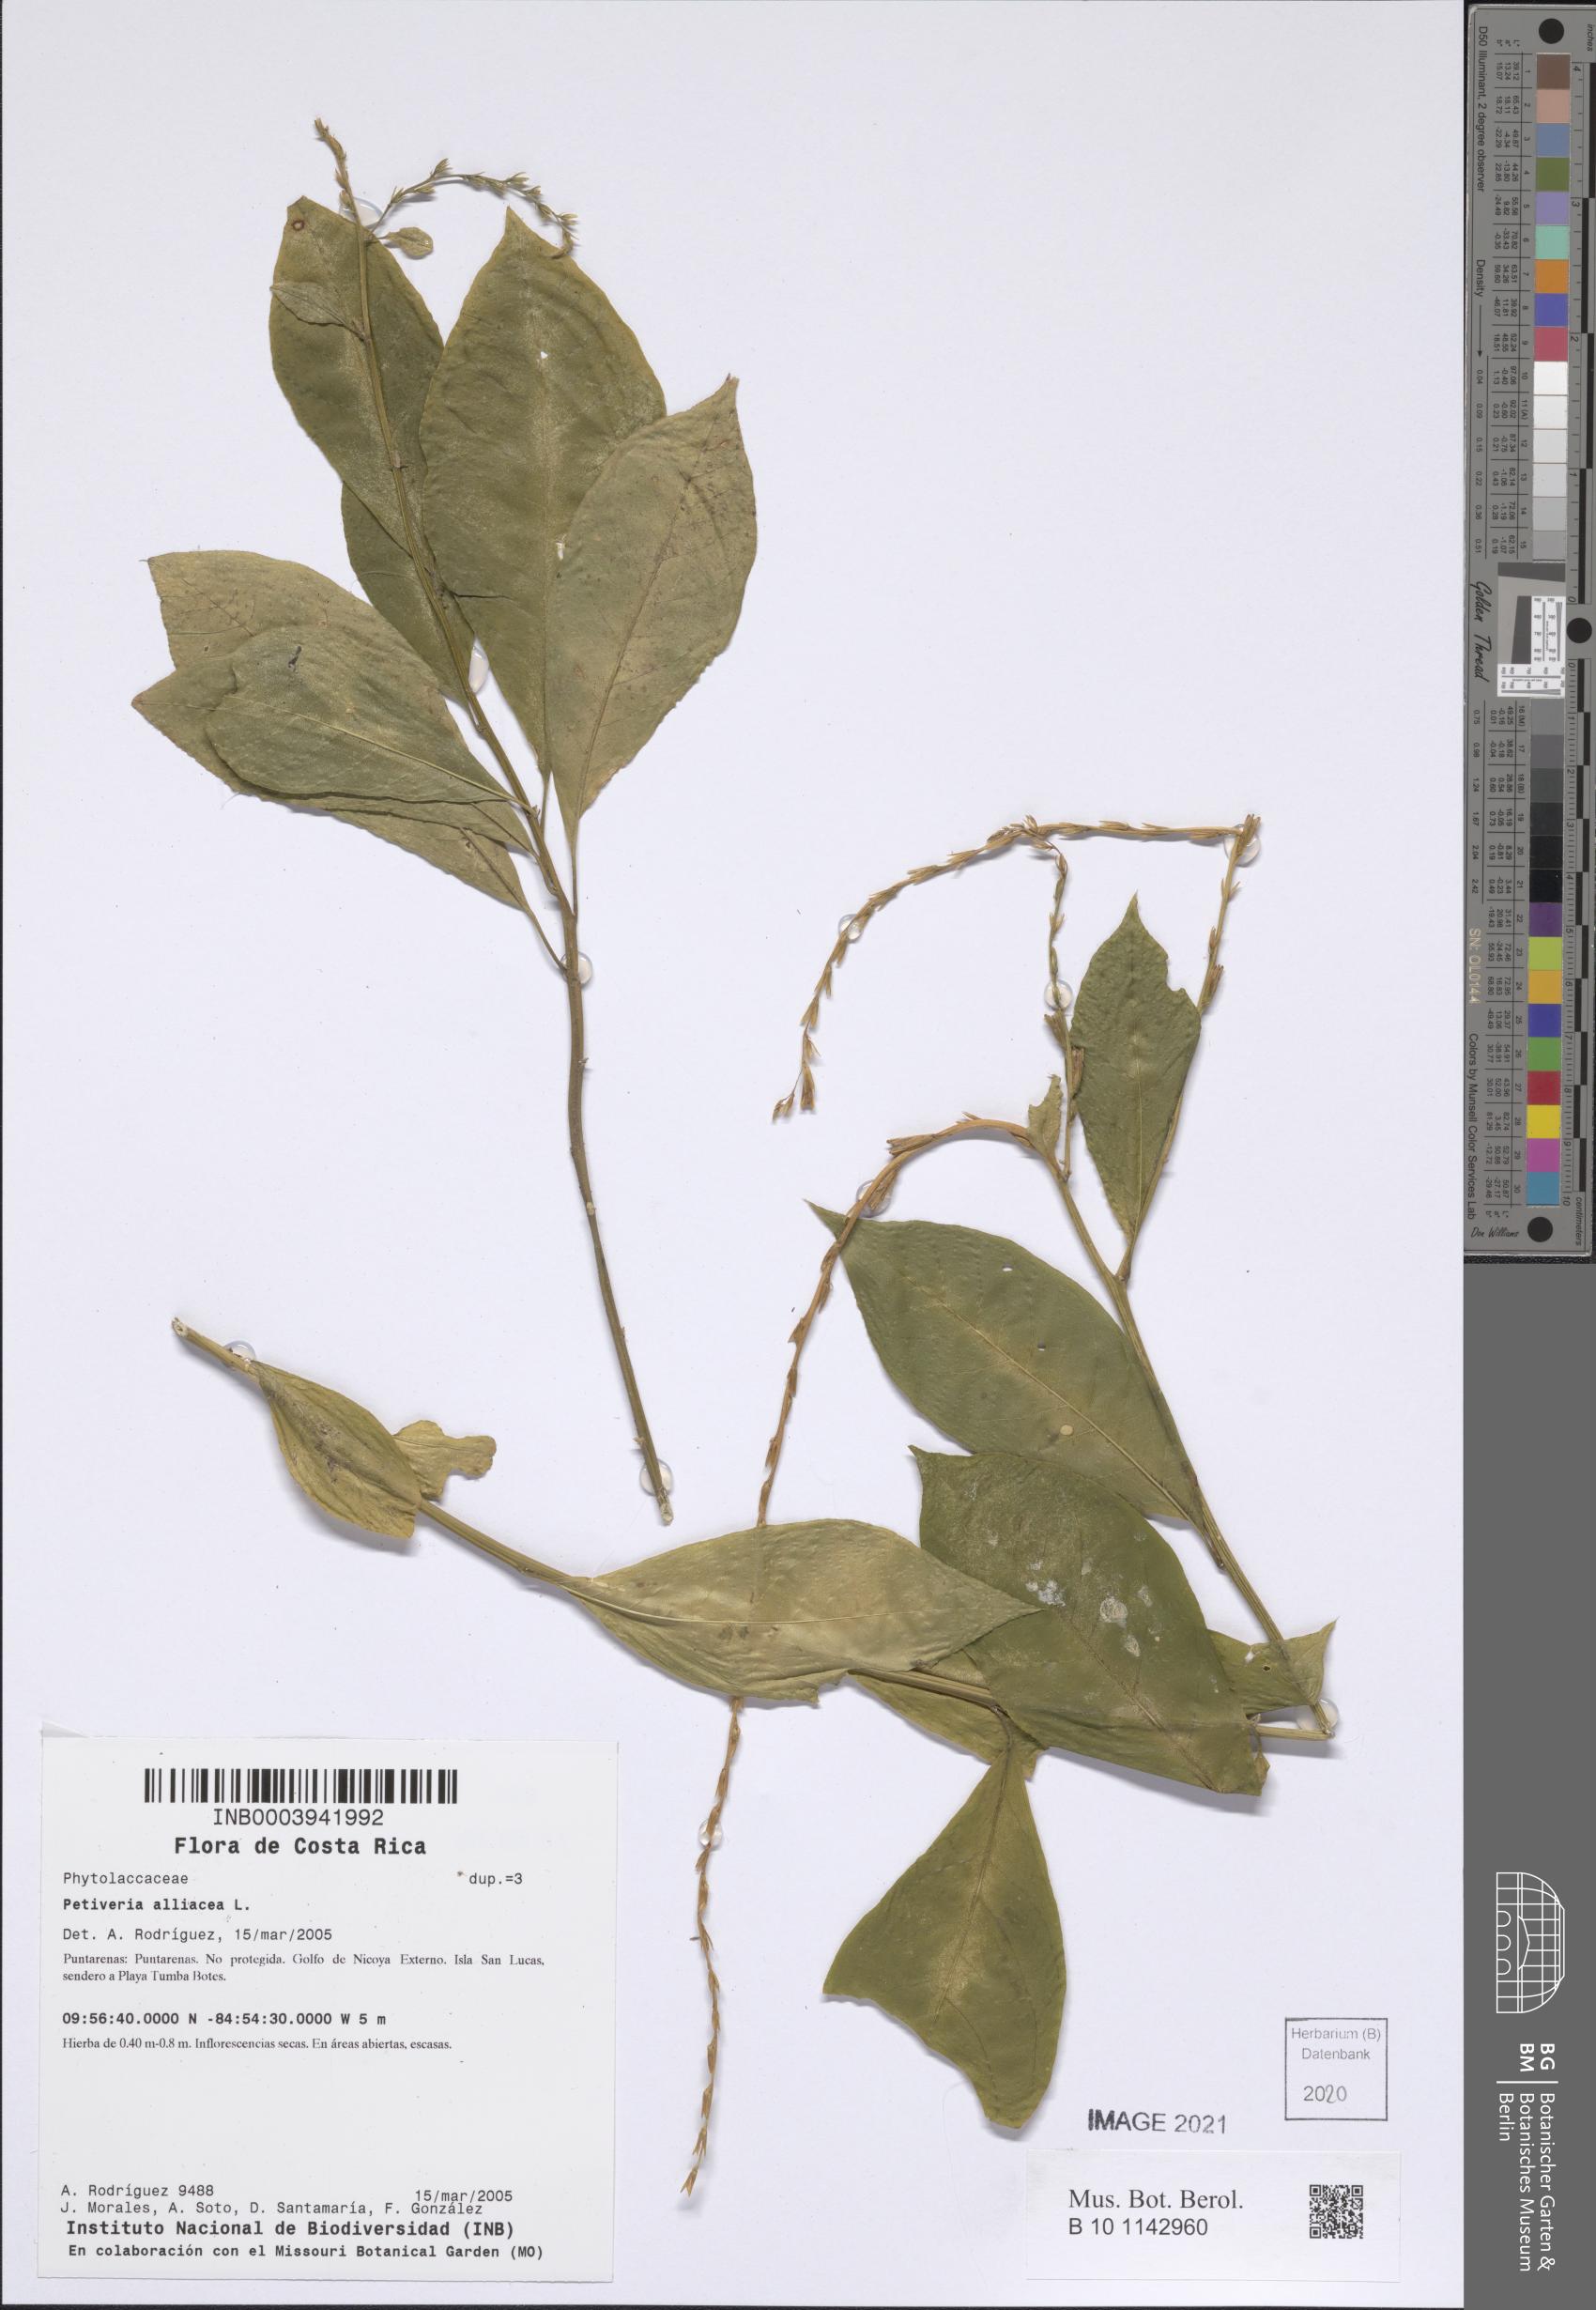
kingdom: Plantae
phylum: Tracheophyta
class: Magnoliopsida
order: Caryophyllales
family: Phytolaccaceae
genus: Petiveria
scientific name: Petiveria alliacea
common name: Garlicweed
